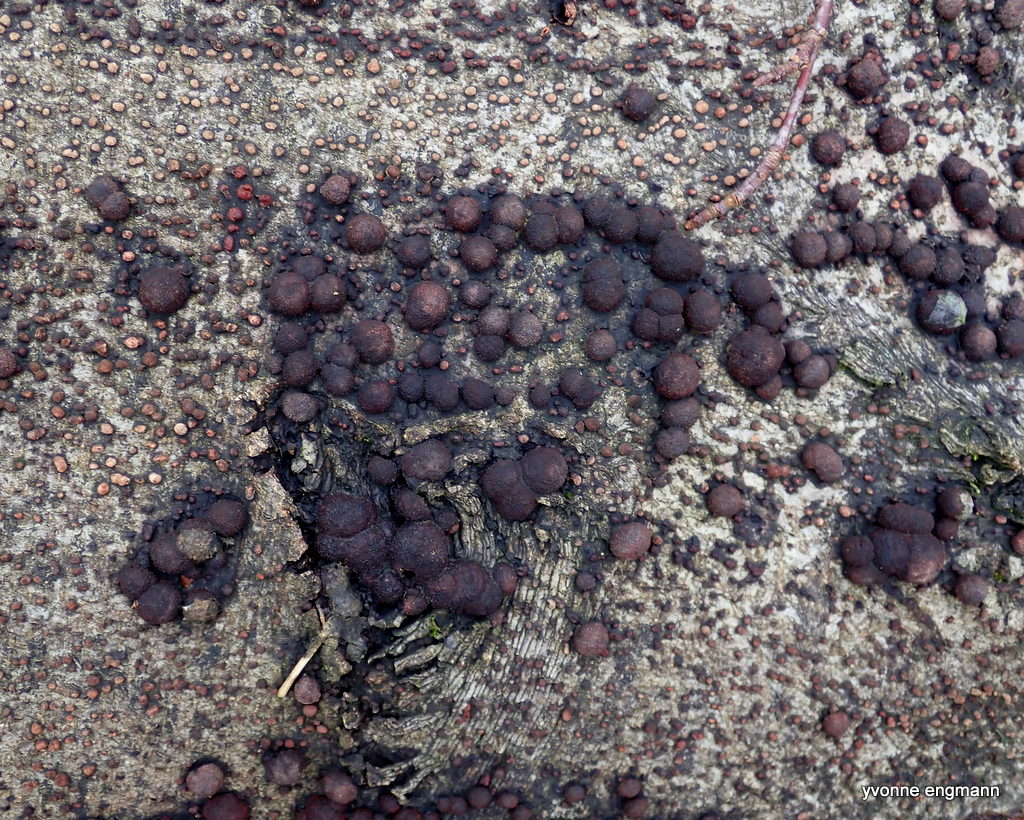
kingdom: Fungi
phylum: Ascomycota
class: Sordariomycetes
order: Xylariales
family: Hypoxylaceae
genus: Hypoxylon
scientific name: Hypoxylon fragiforme
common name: kuljordbær
